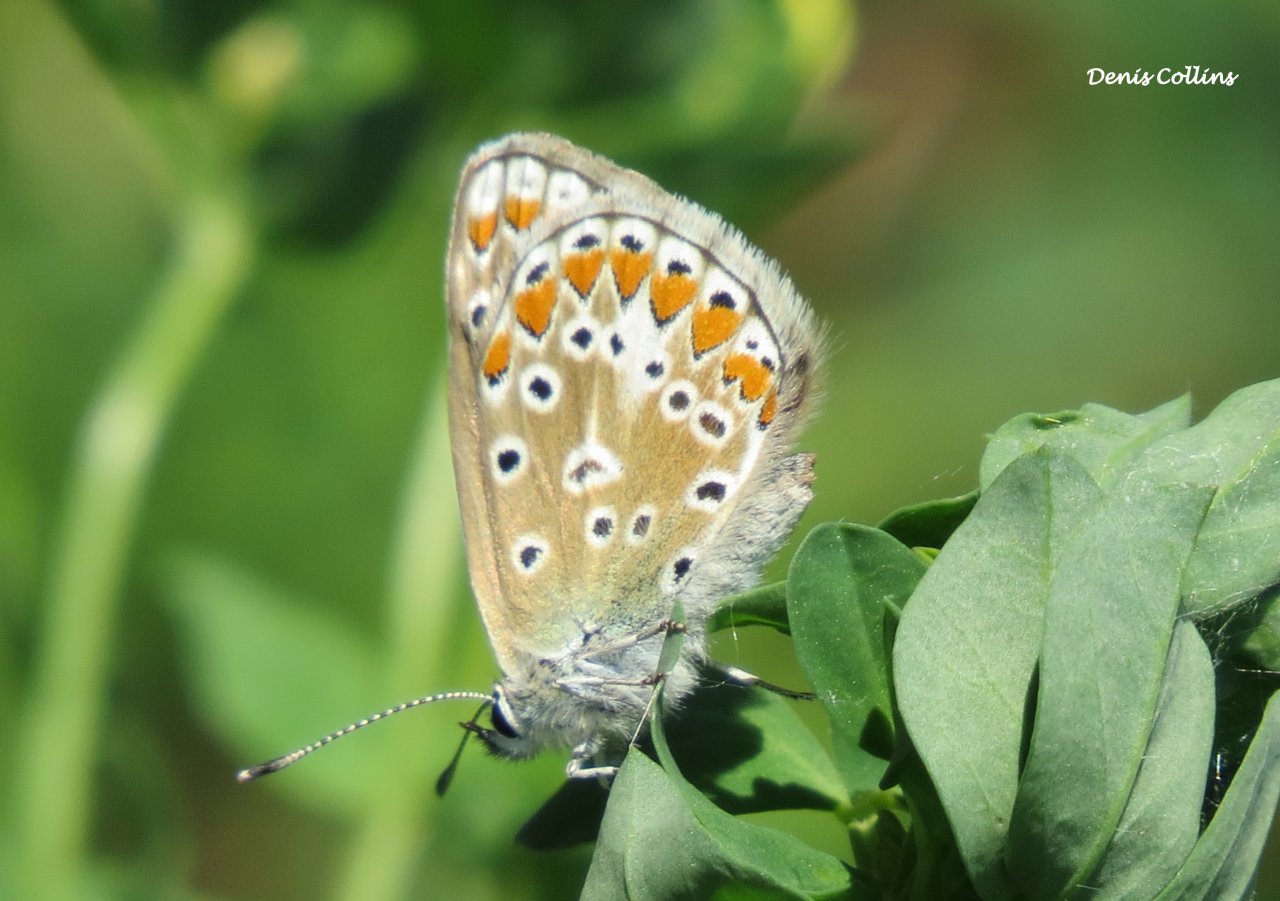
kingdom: Animalia
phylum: Arthropoda
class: Insecta
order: Lepidoptera
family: Lycaenidae
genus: Polyommatus
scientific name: Polyommatus icarus
